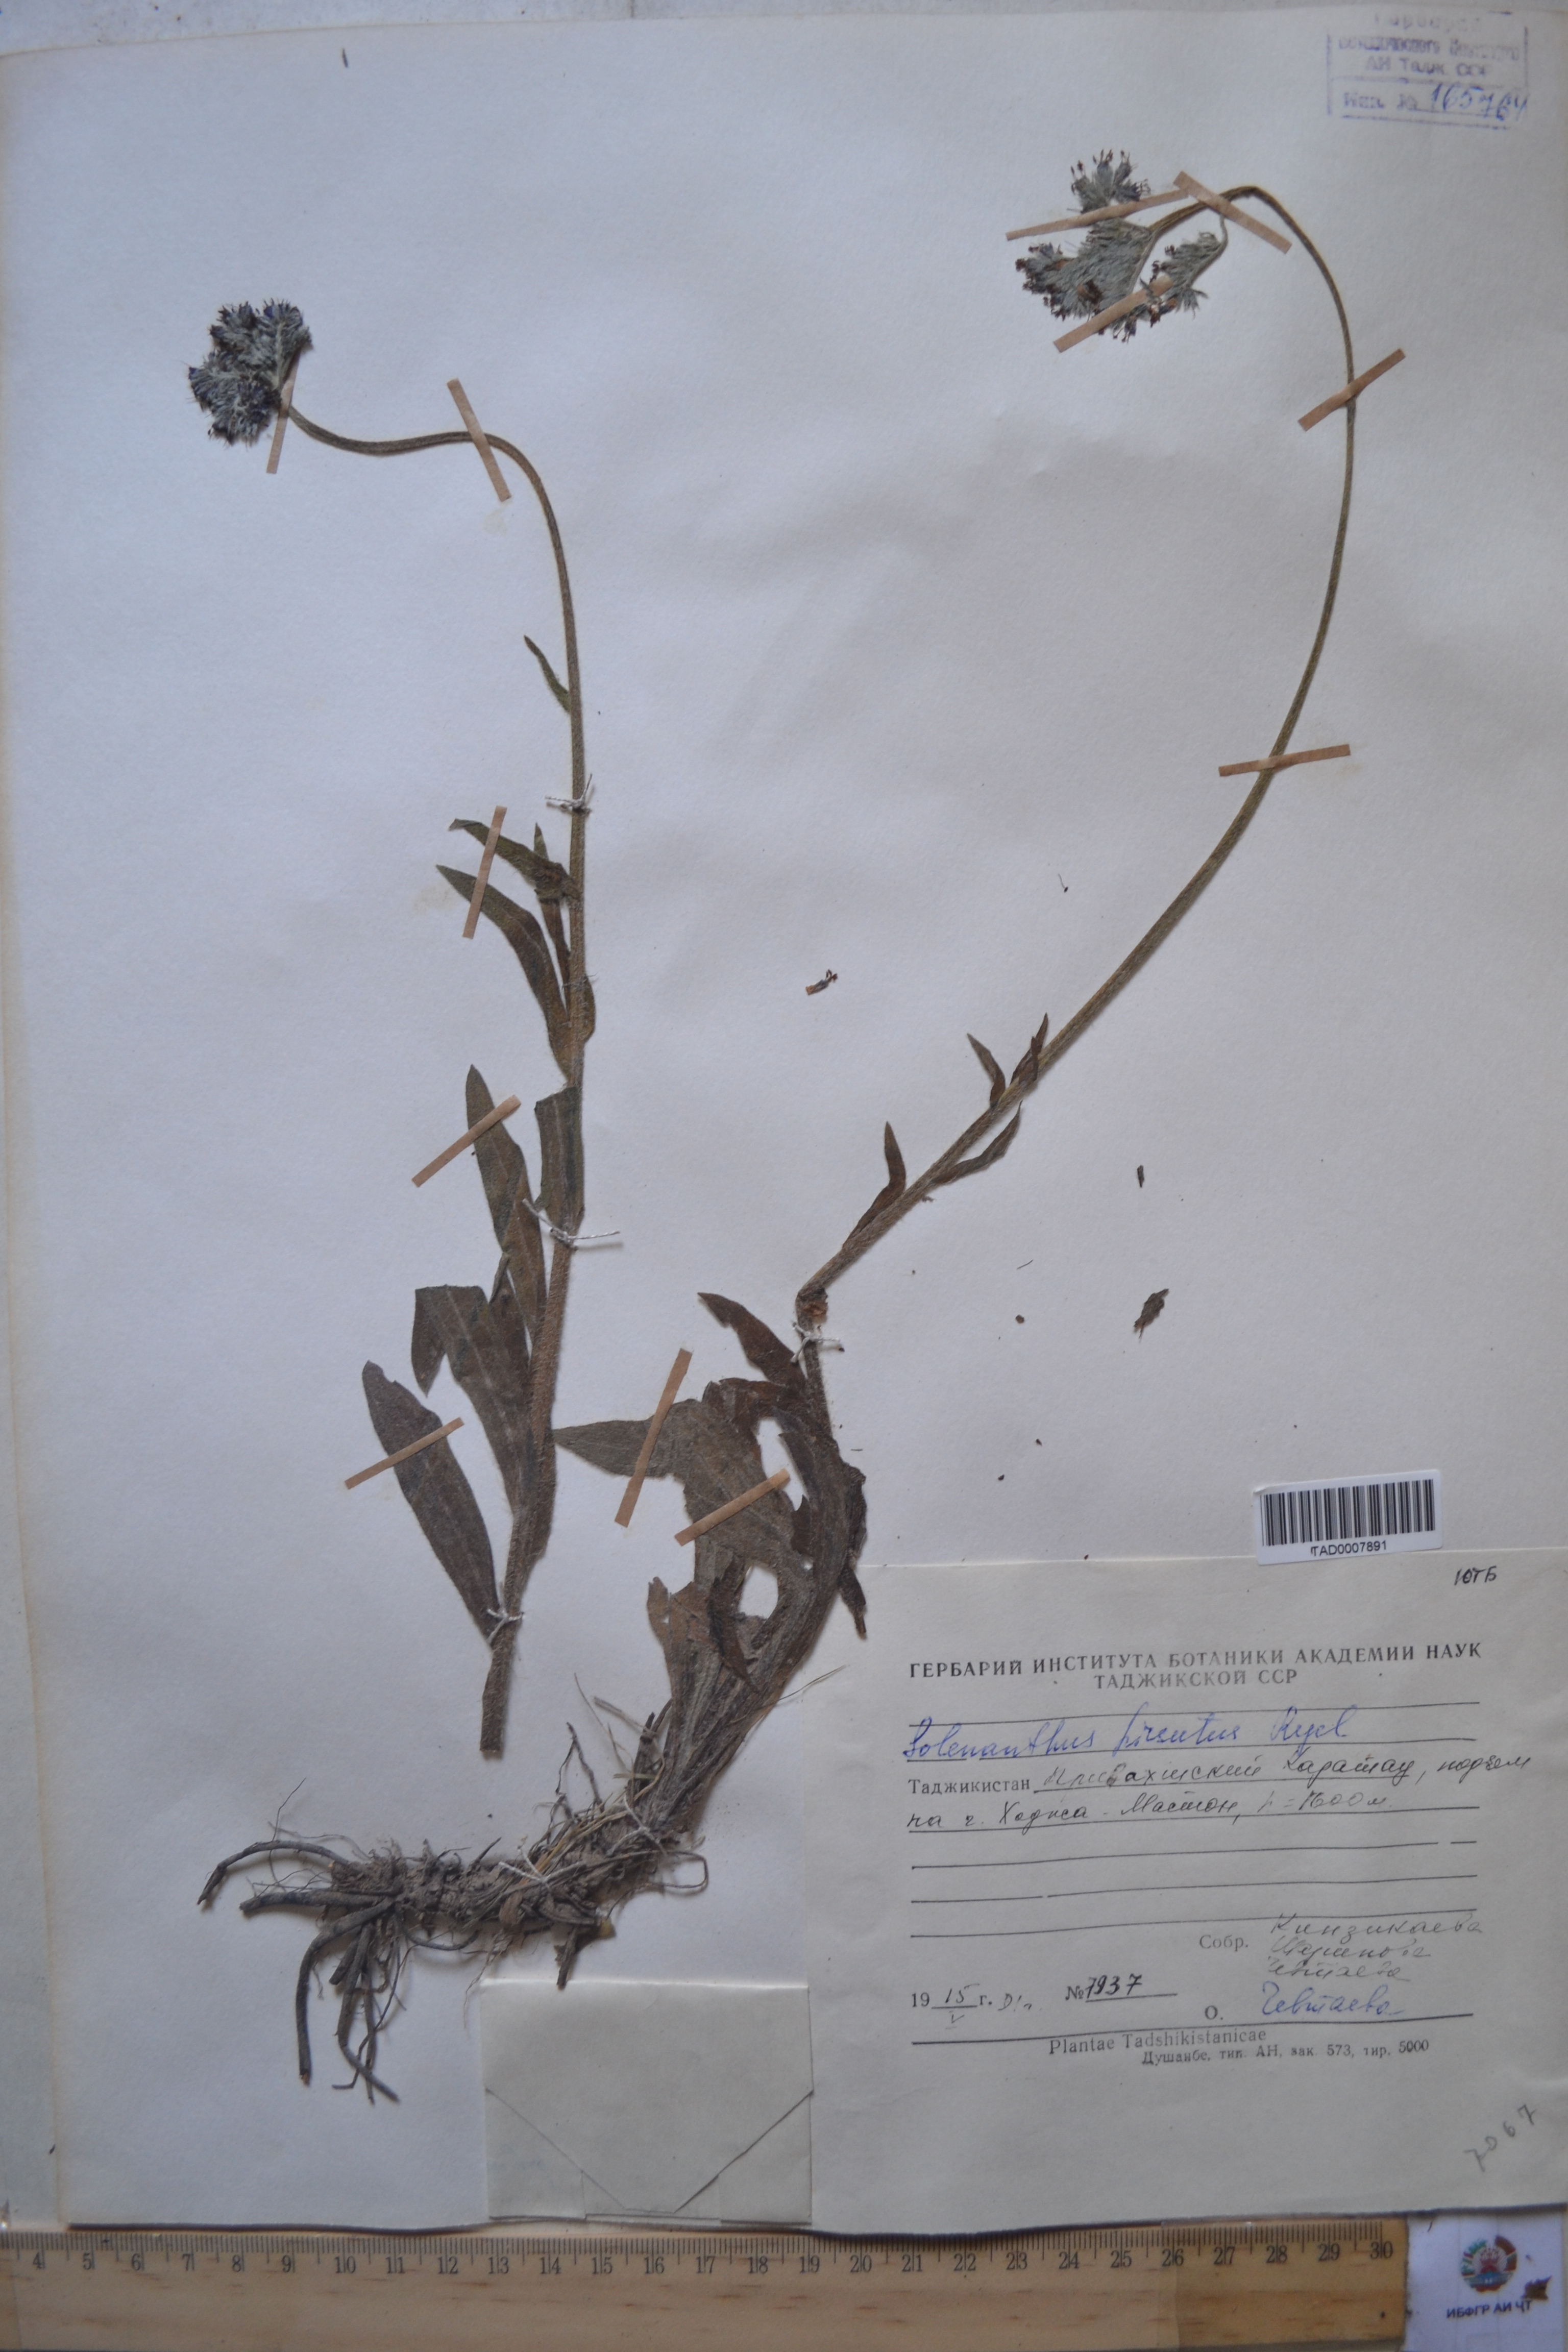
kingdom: Plantae
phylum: Tracheophyta
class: Magnoliopsida
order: Boraginales
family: Boraginaceae
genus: Solenanthus
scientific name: Solenanthus hirsutus
